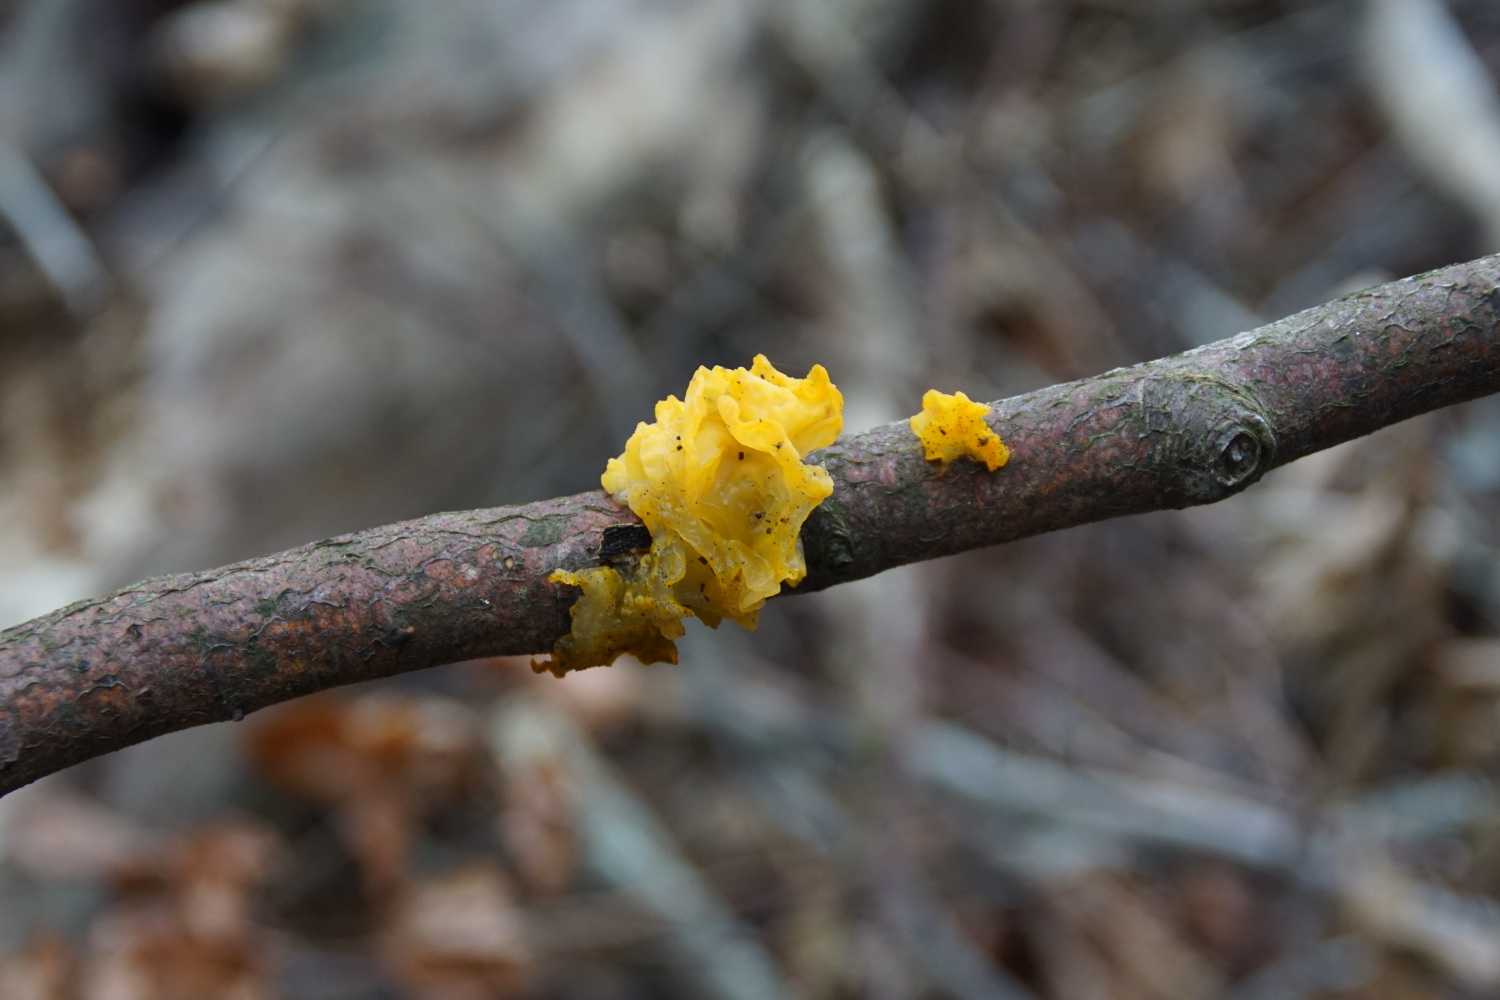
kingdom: Fungi
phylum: Basidiomycota
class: Tremellomycetes
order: Tremellales
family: Tremellaceae
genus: Tremella
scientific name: Tremella mesenterica
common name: gul bævresvamp
